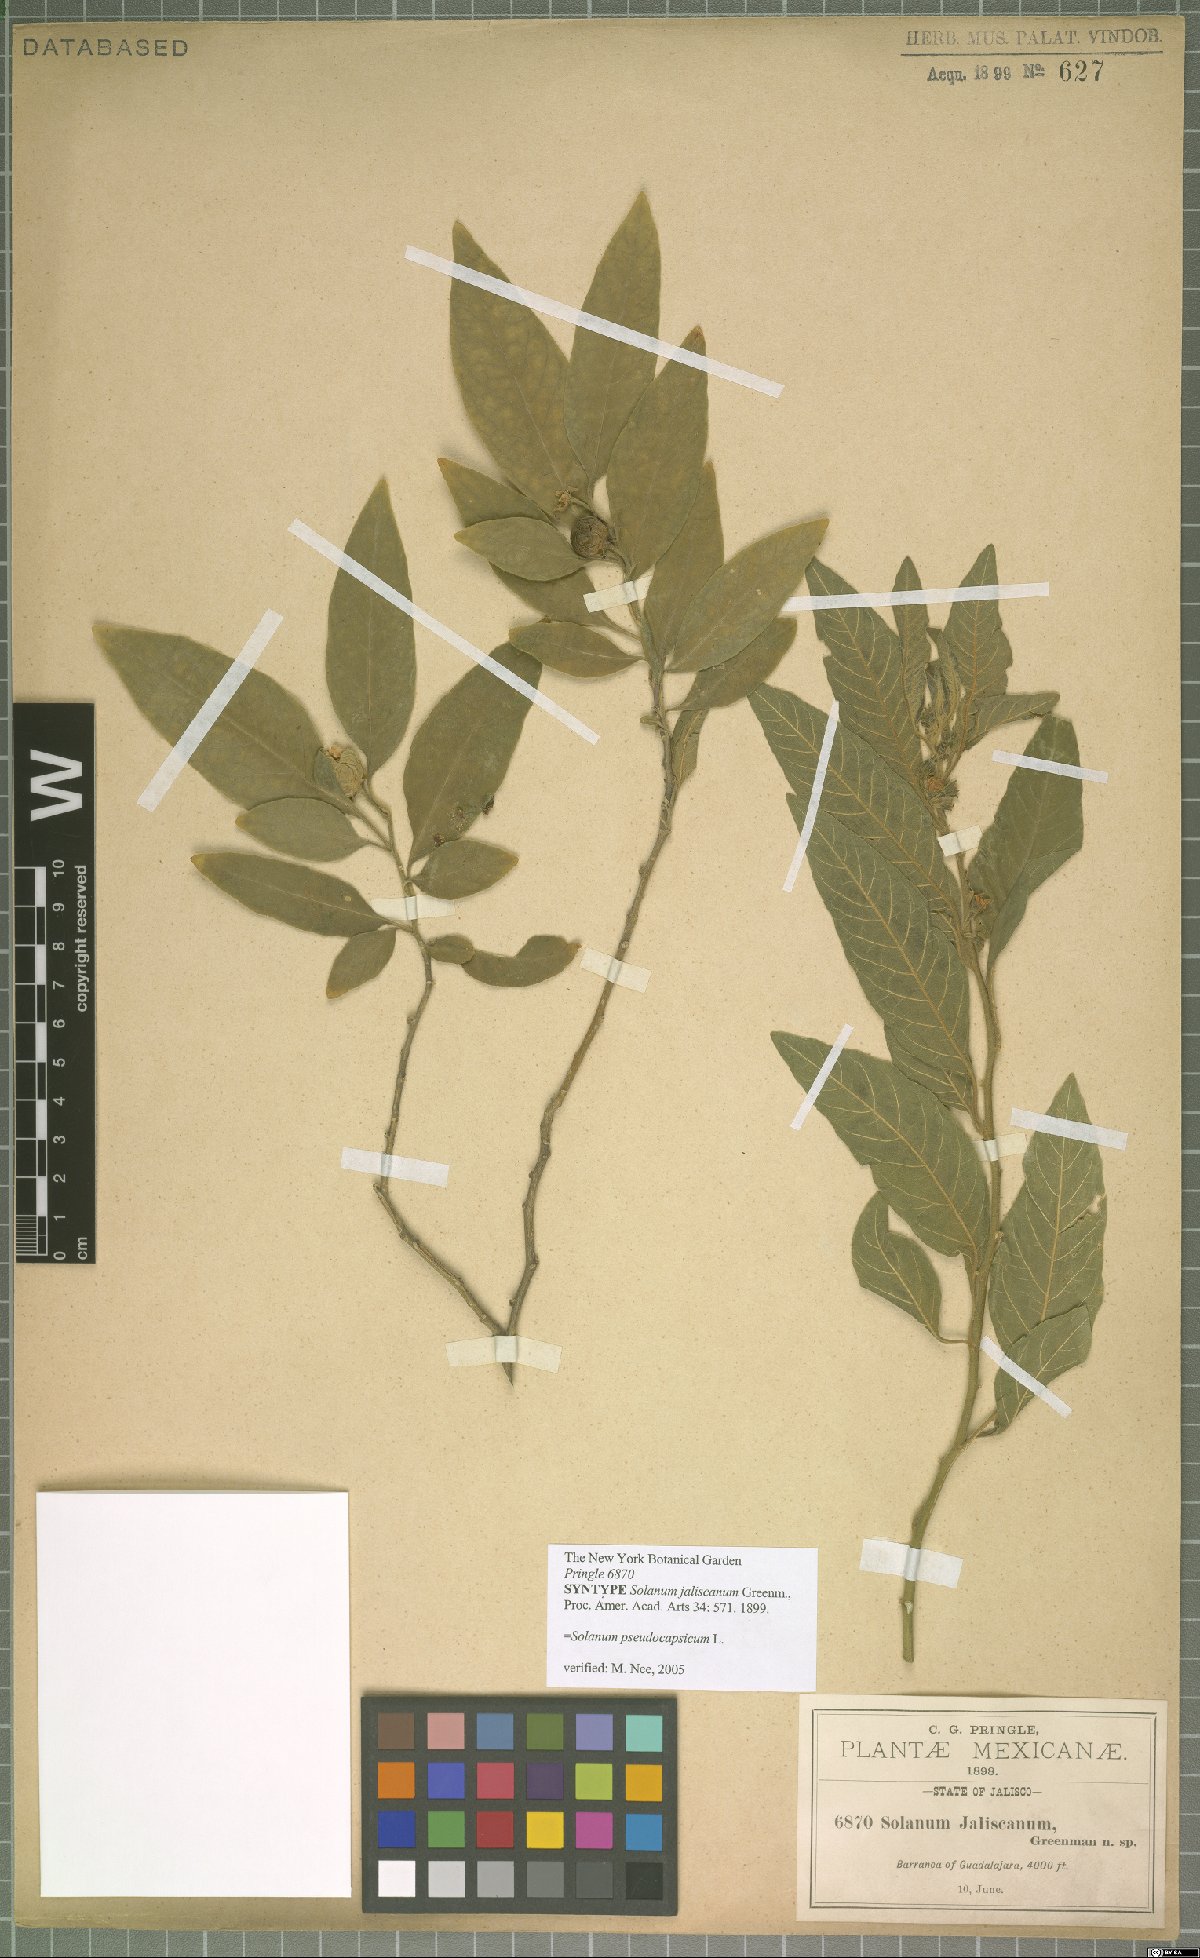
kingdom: Plantae
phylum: Tracheophyta
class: Magnoliopsida
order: Solanales
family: Solanaceae
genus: Solanum
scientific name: Solanum pseudocapsicum
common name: Jerusalem cherry
